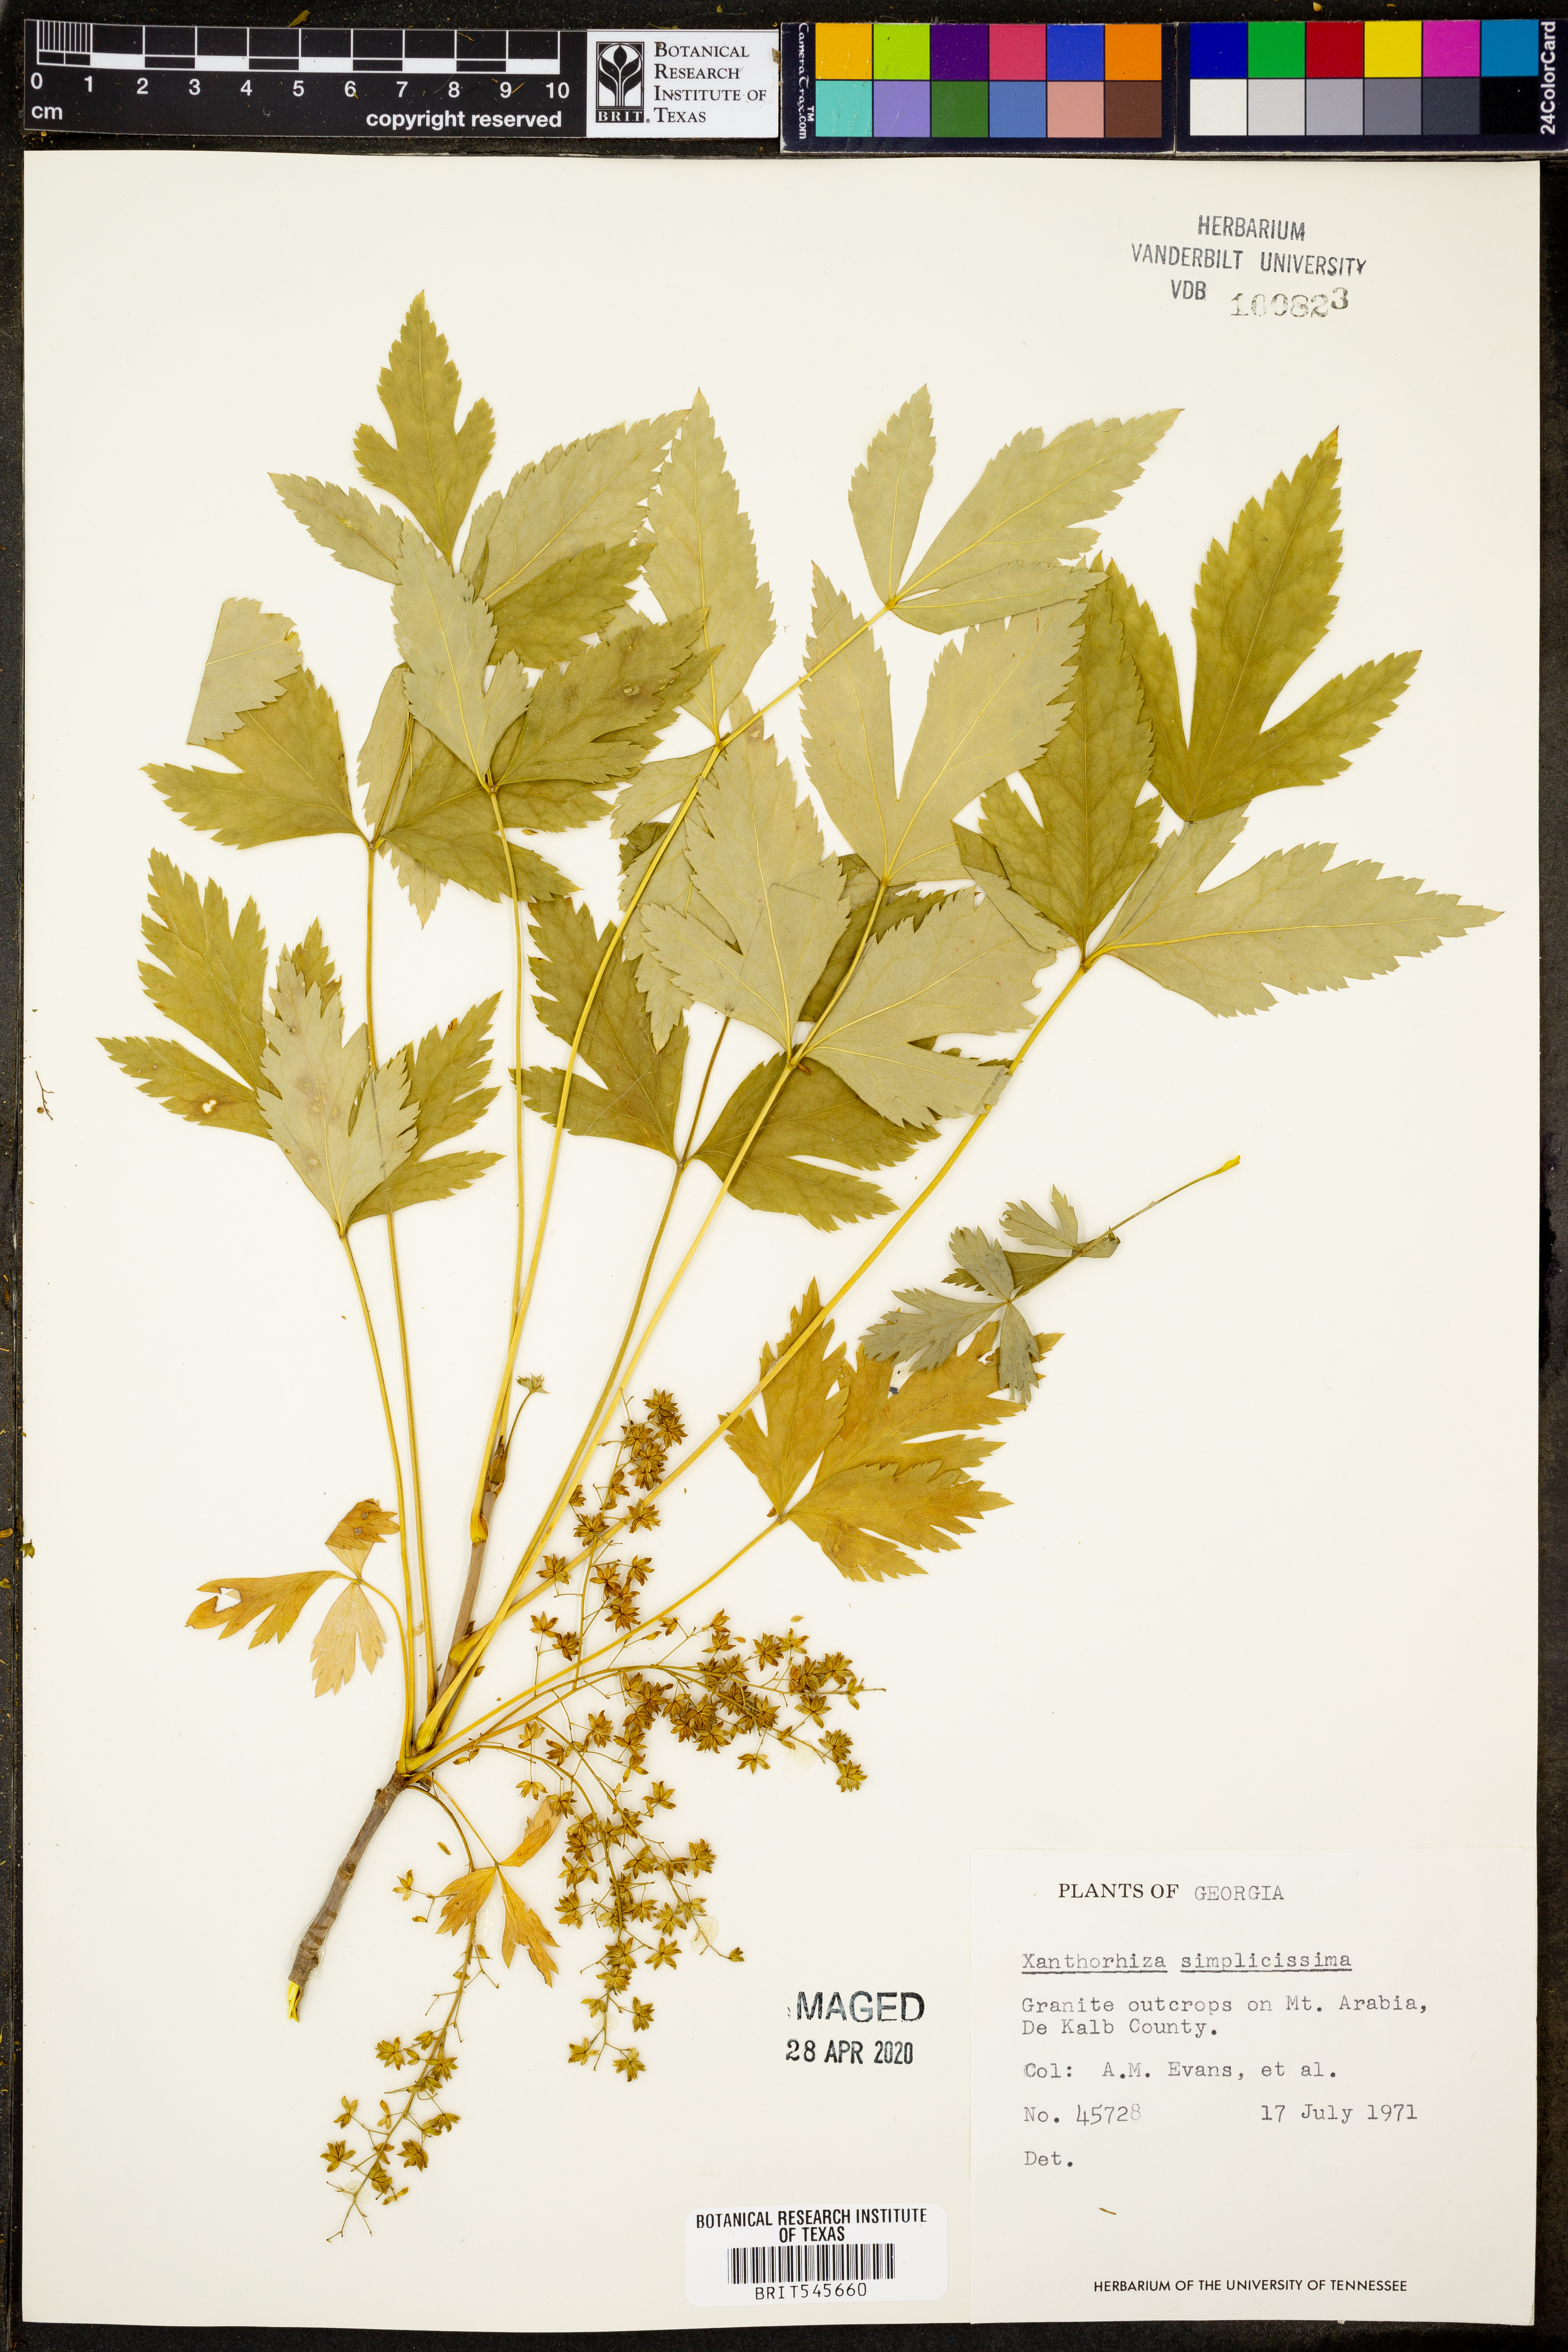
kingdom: Plantae
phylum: Tracheophyta
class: Magnoliopsida
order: Ranunculales
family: Ranunculaceae
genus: Xanthorhiza
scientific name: Xanthorhiza simplicissima
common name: Yellowroot
